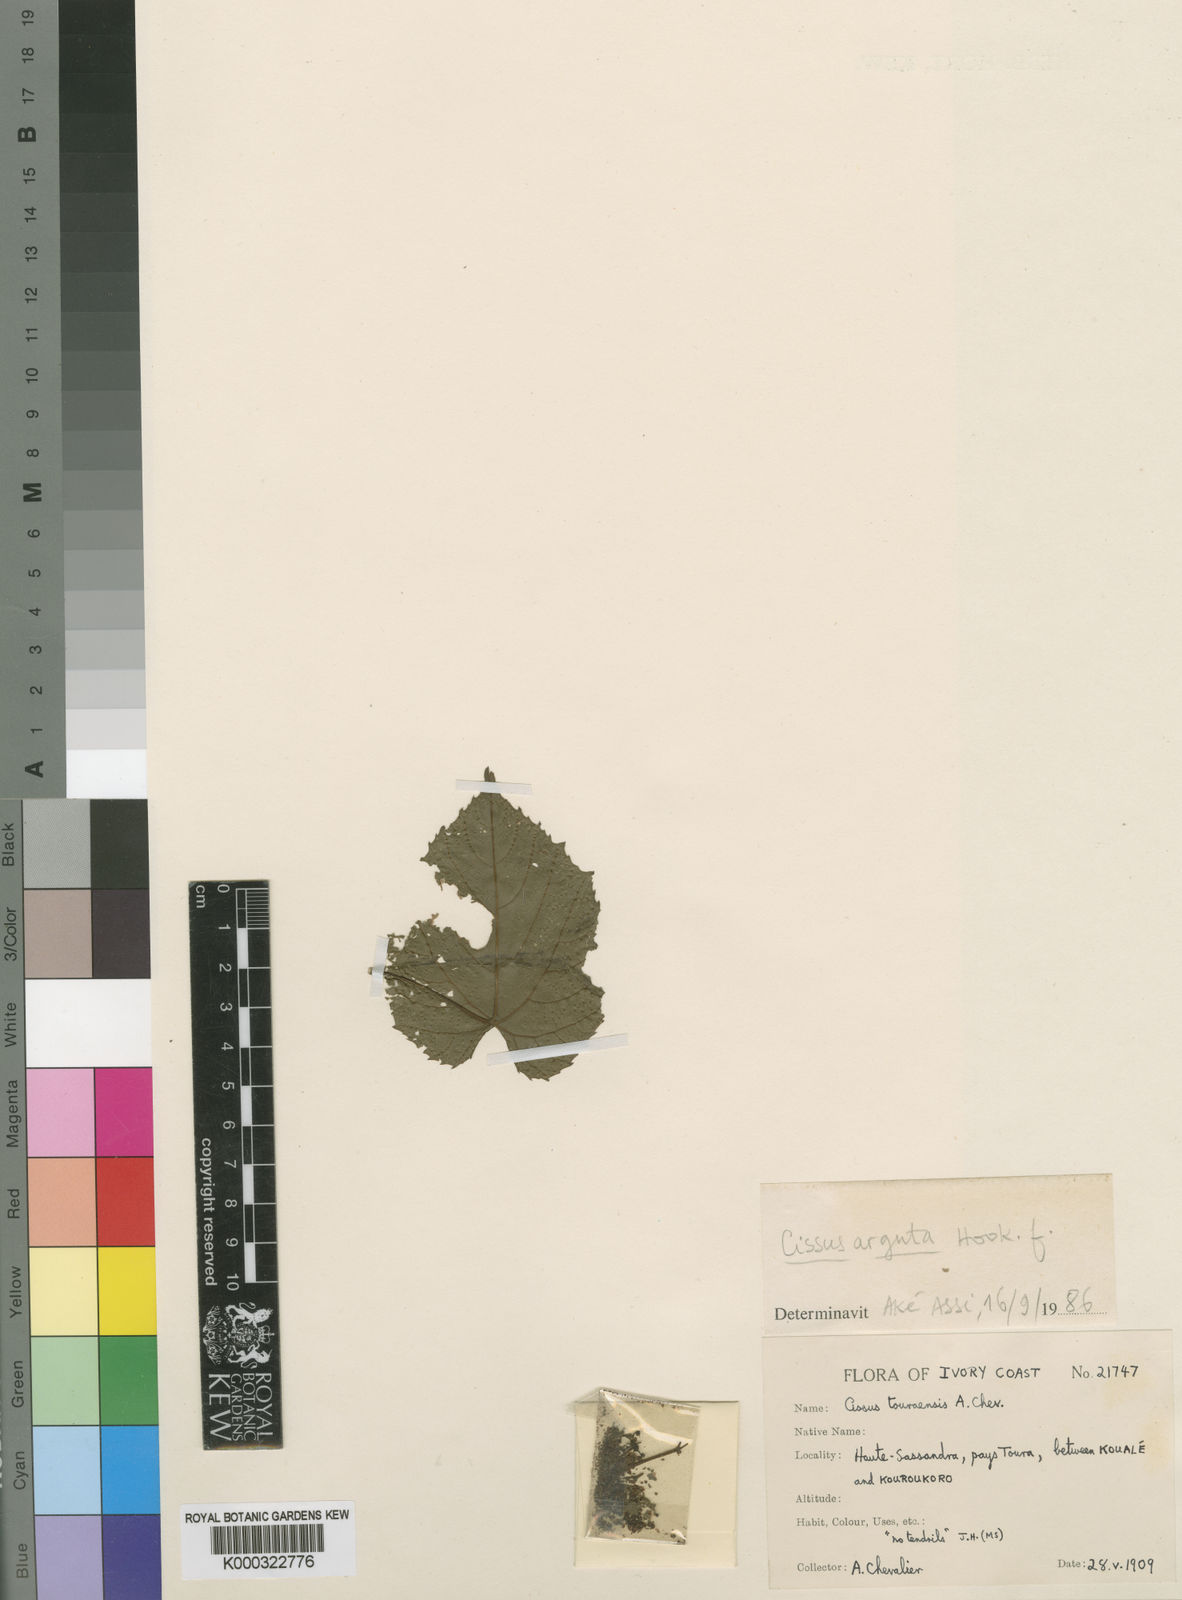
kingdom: Plantae
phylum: Tracheophyta
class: Magnoliopsida
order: Vitales
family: Vitaceae
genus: Cissus
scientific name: Cissus touraensis
